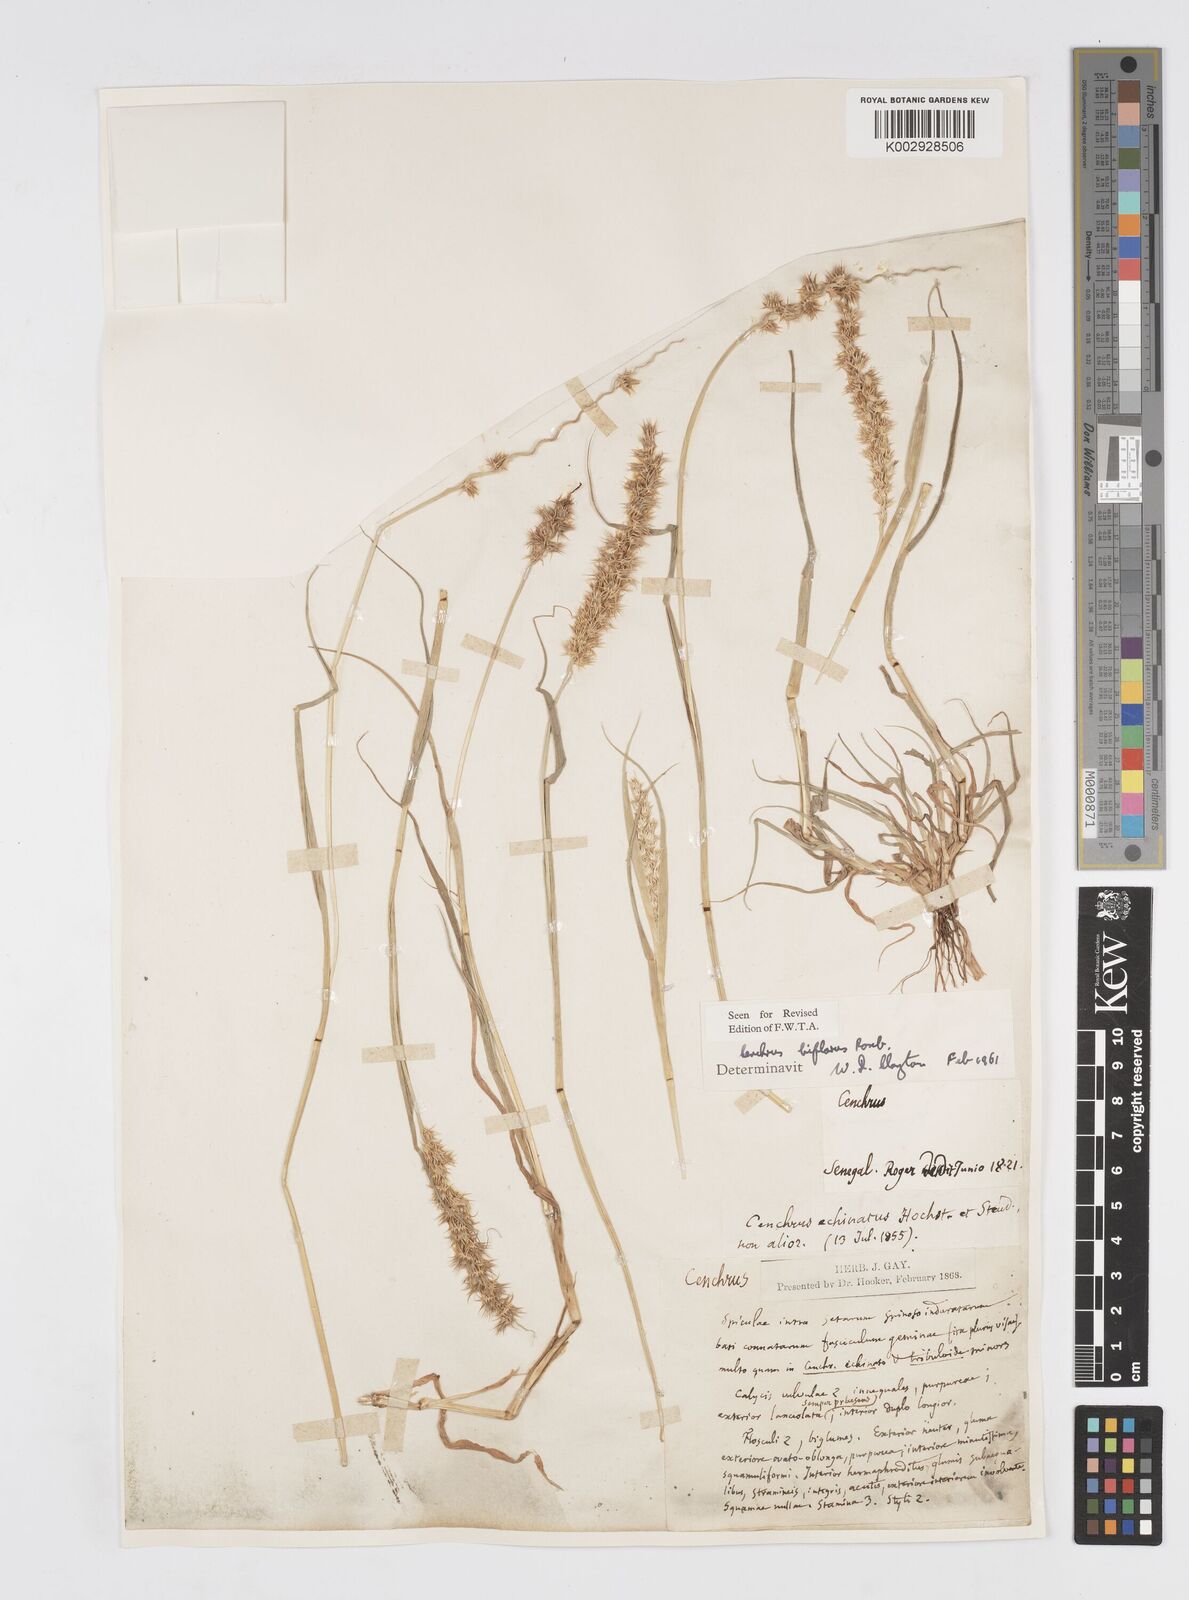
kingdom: Plantae
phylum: Tracheophyta
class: Liliopsida
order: Poales
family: Poaceae
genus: Cenchrus
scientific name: Cenchrus biflorus
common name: Indian sandbur
